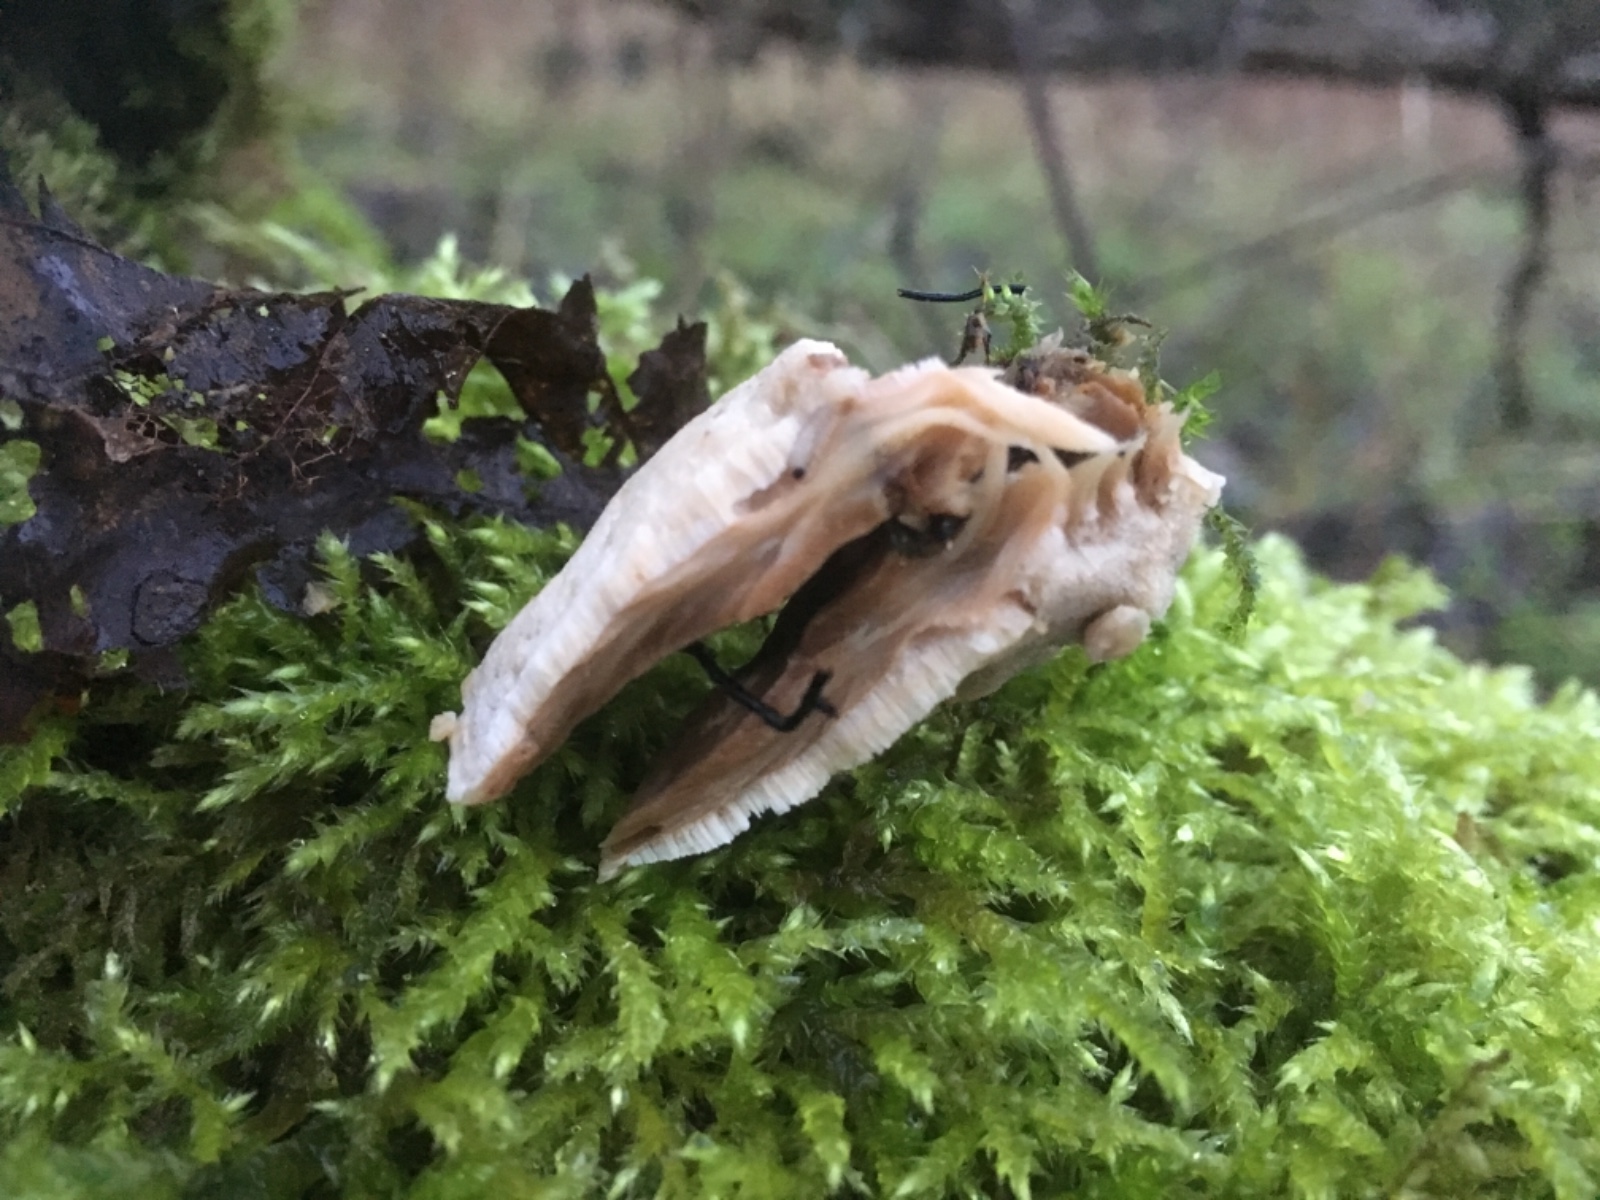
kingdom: Fungi
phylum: Basidiomycota
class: Agaricomycetes
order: Polyporales
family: Phanerochaetaceae
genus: Bjerkandera
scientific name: Bjerkandera fumosa
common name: grågul sodporesvamp
